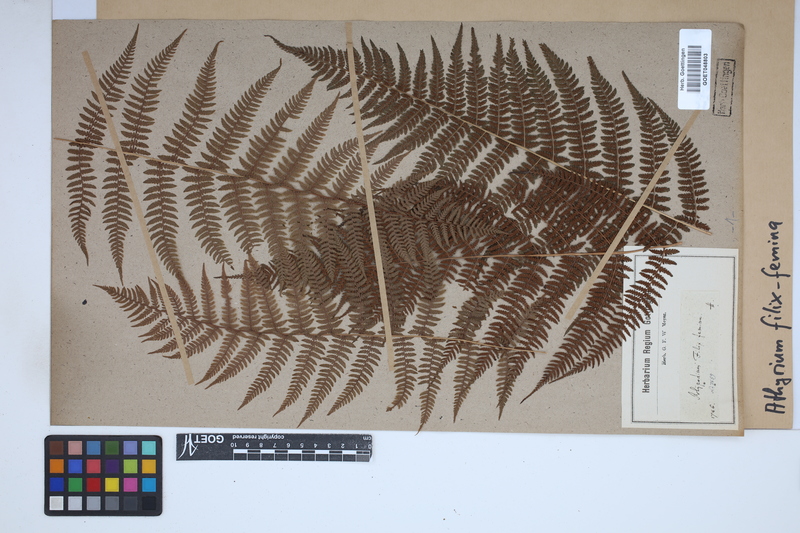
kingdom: Plantae
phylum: Tracheophyta
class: Polypodiopsida
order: Polypodiales
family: Athyriaceae
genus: Athyrium
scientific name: Athyrium filix-femina
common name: Lady fern
